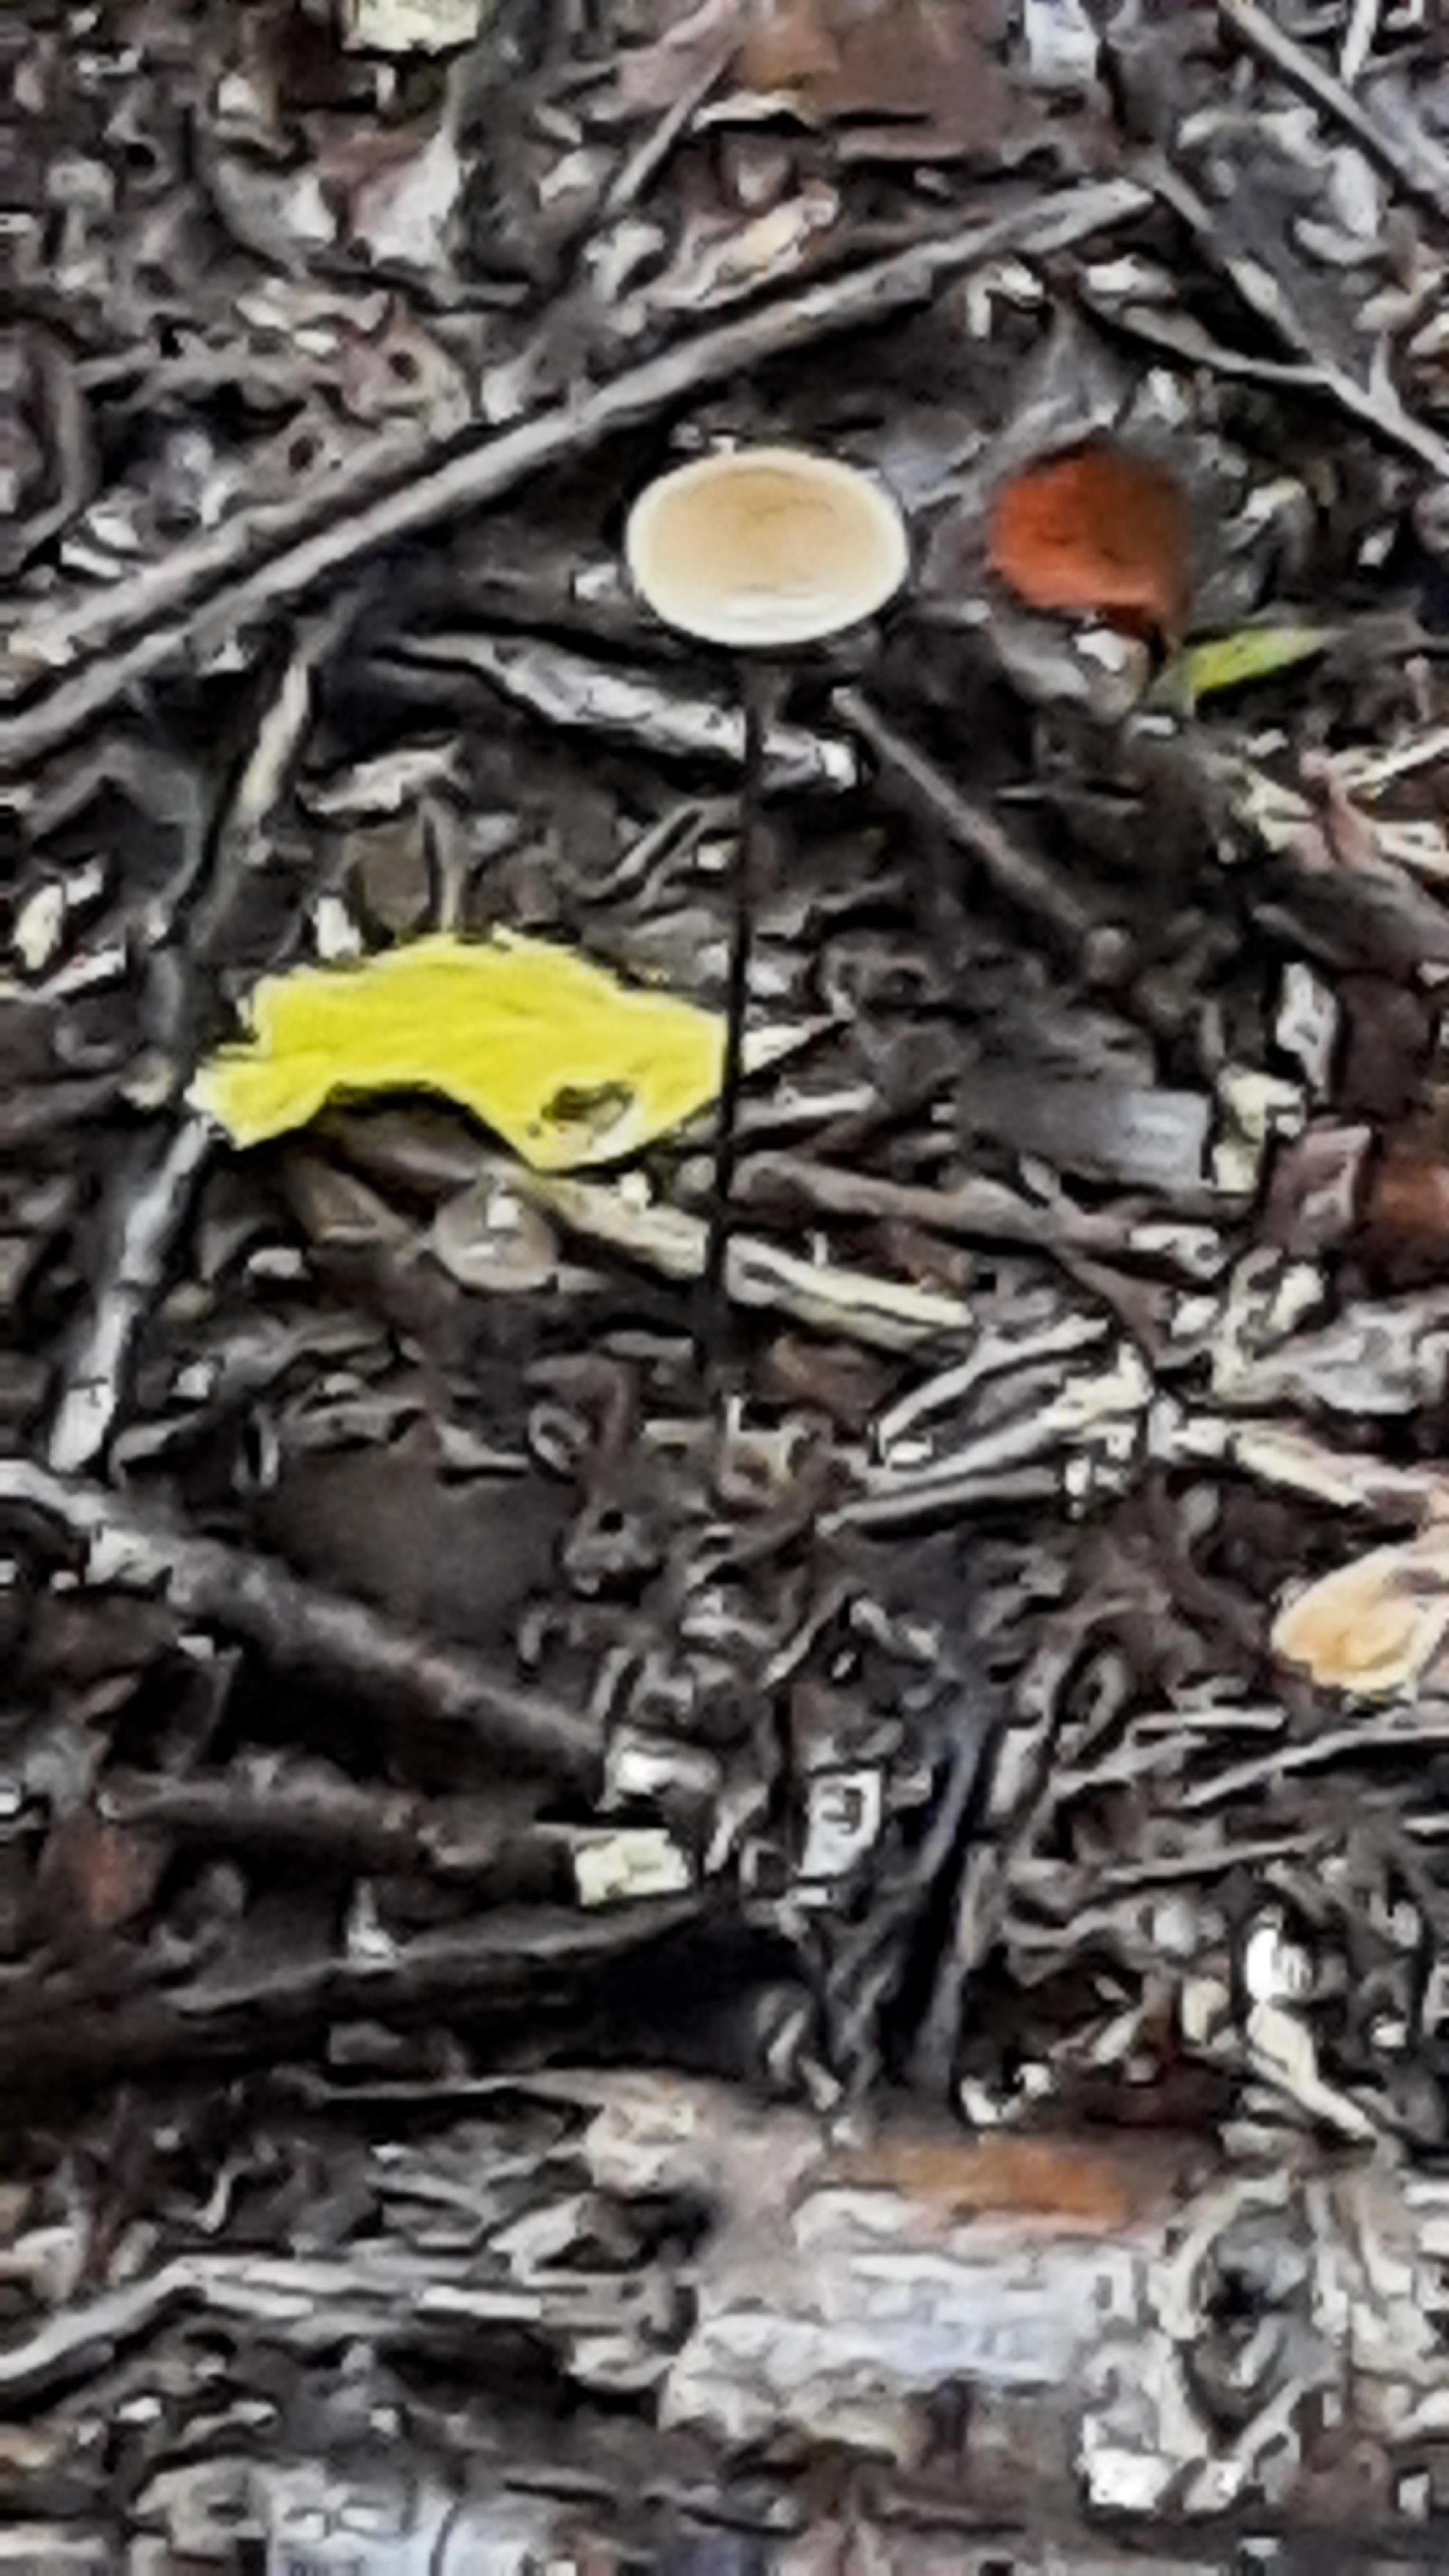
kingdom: Fungi
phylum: Basidiomycota
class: Agaricomycetes
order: Agaricales
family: Omphalotaceae
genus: Mycetinis
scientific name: Mycetinis alliaceus
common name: stor løghat
